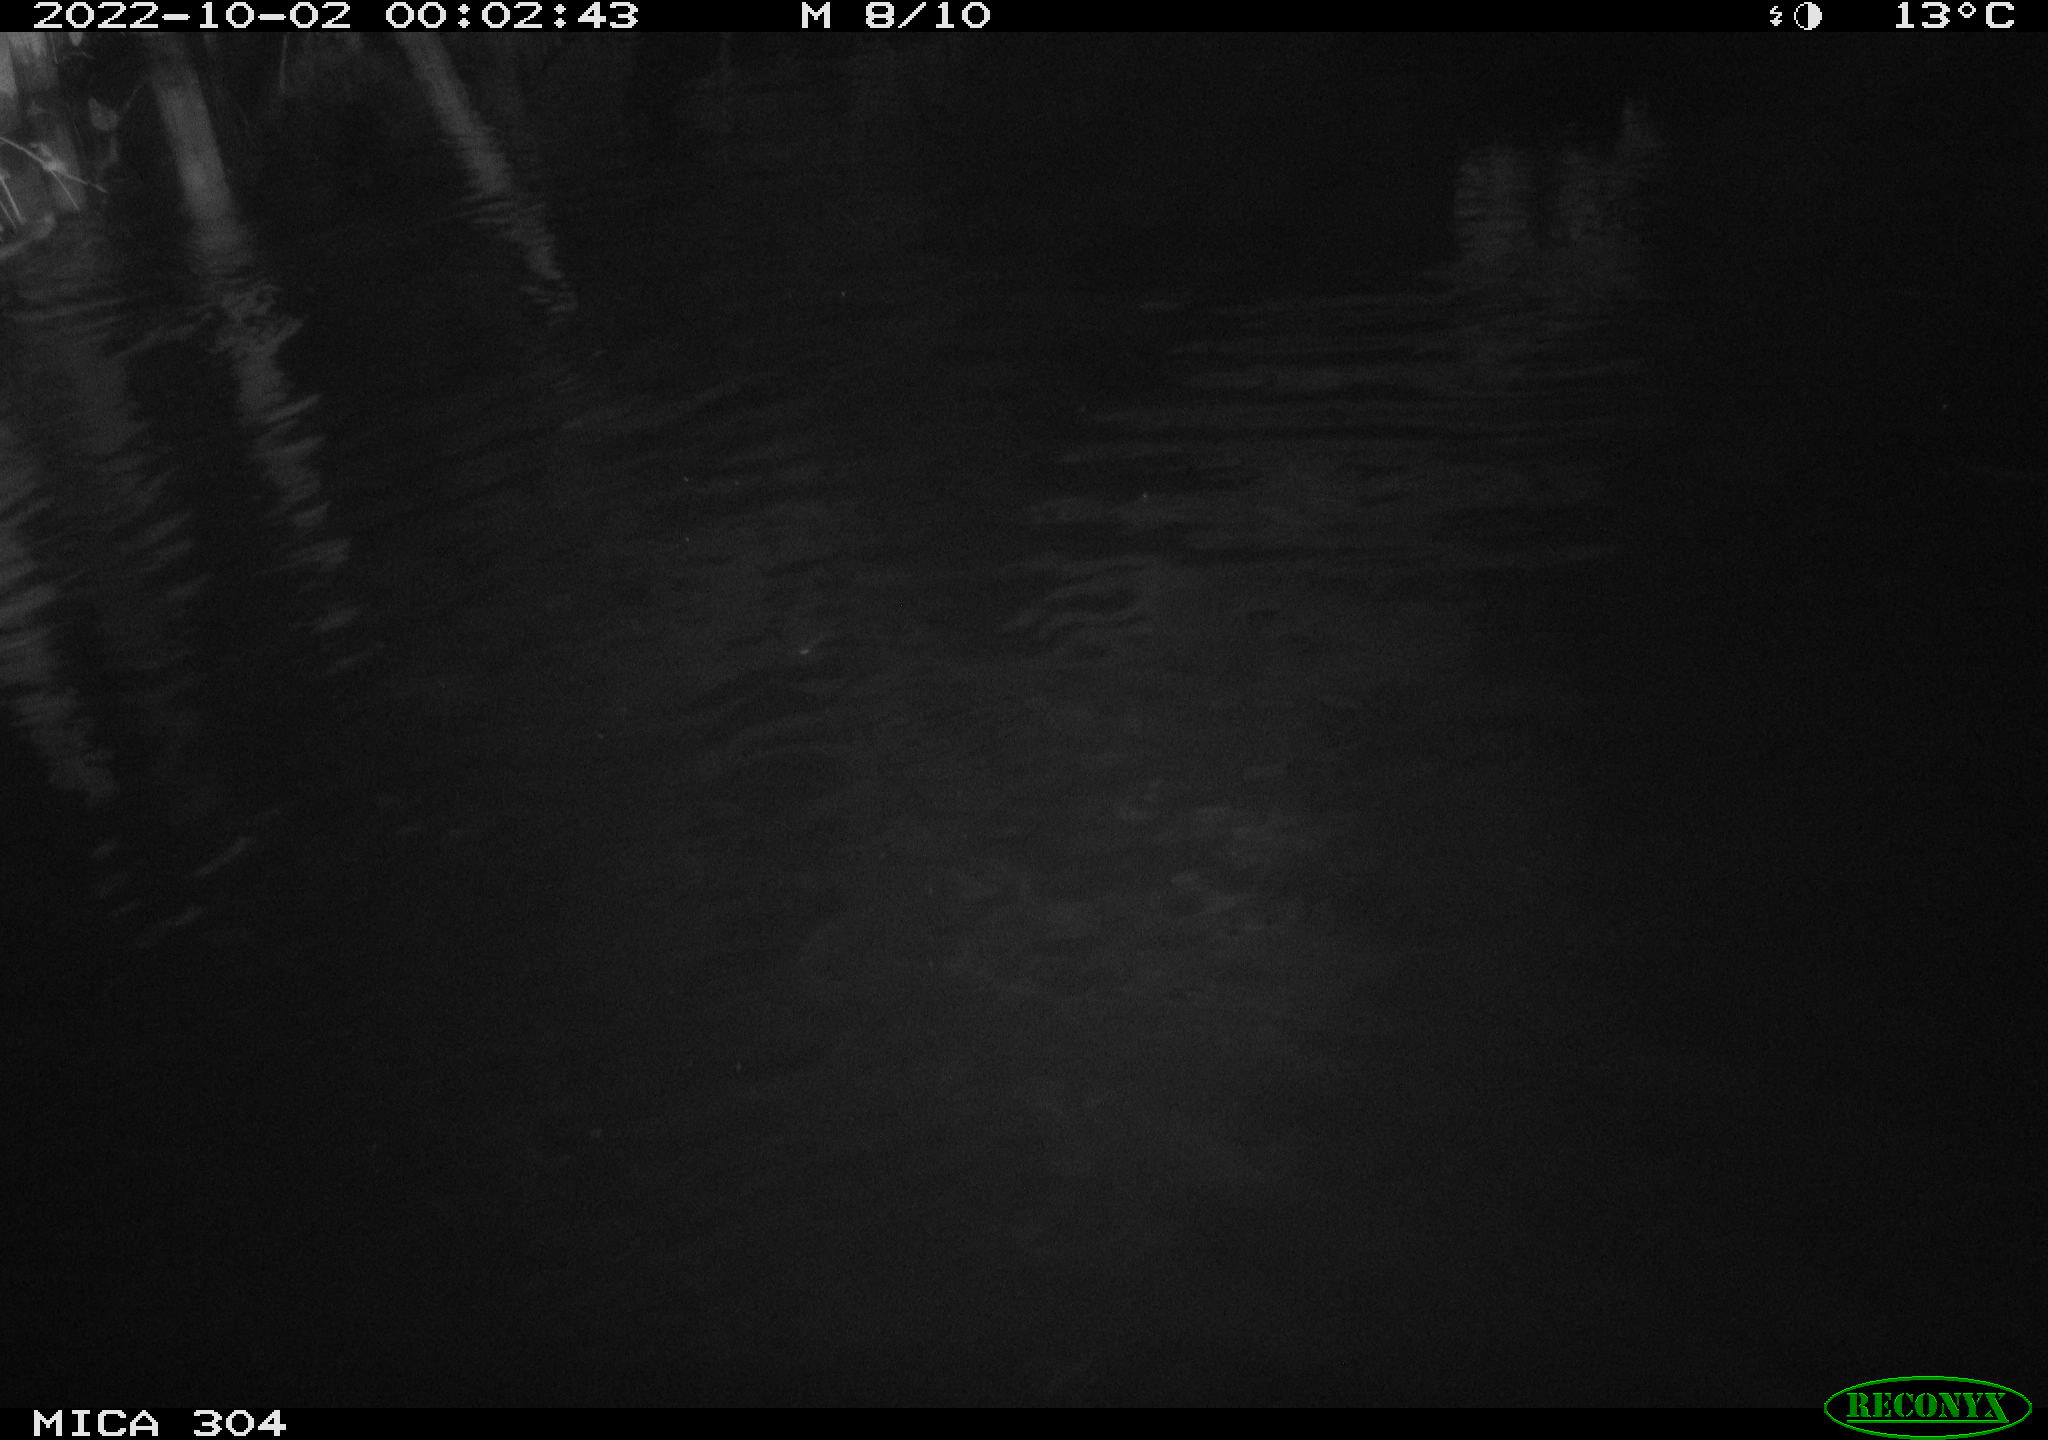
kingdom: Animalia
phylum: Chordata
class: Mammalia
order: Rodentia
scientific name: Rodentia
